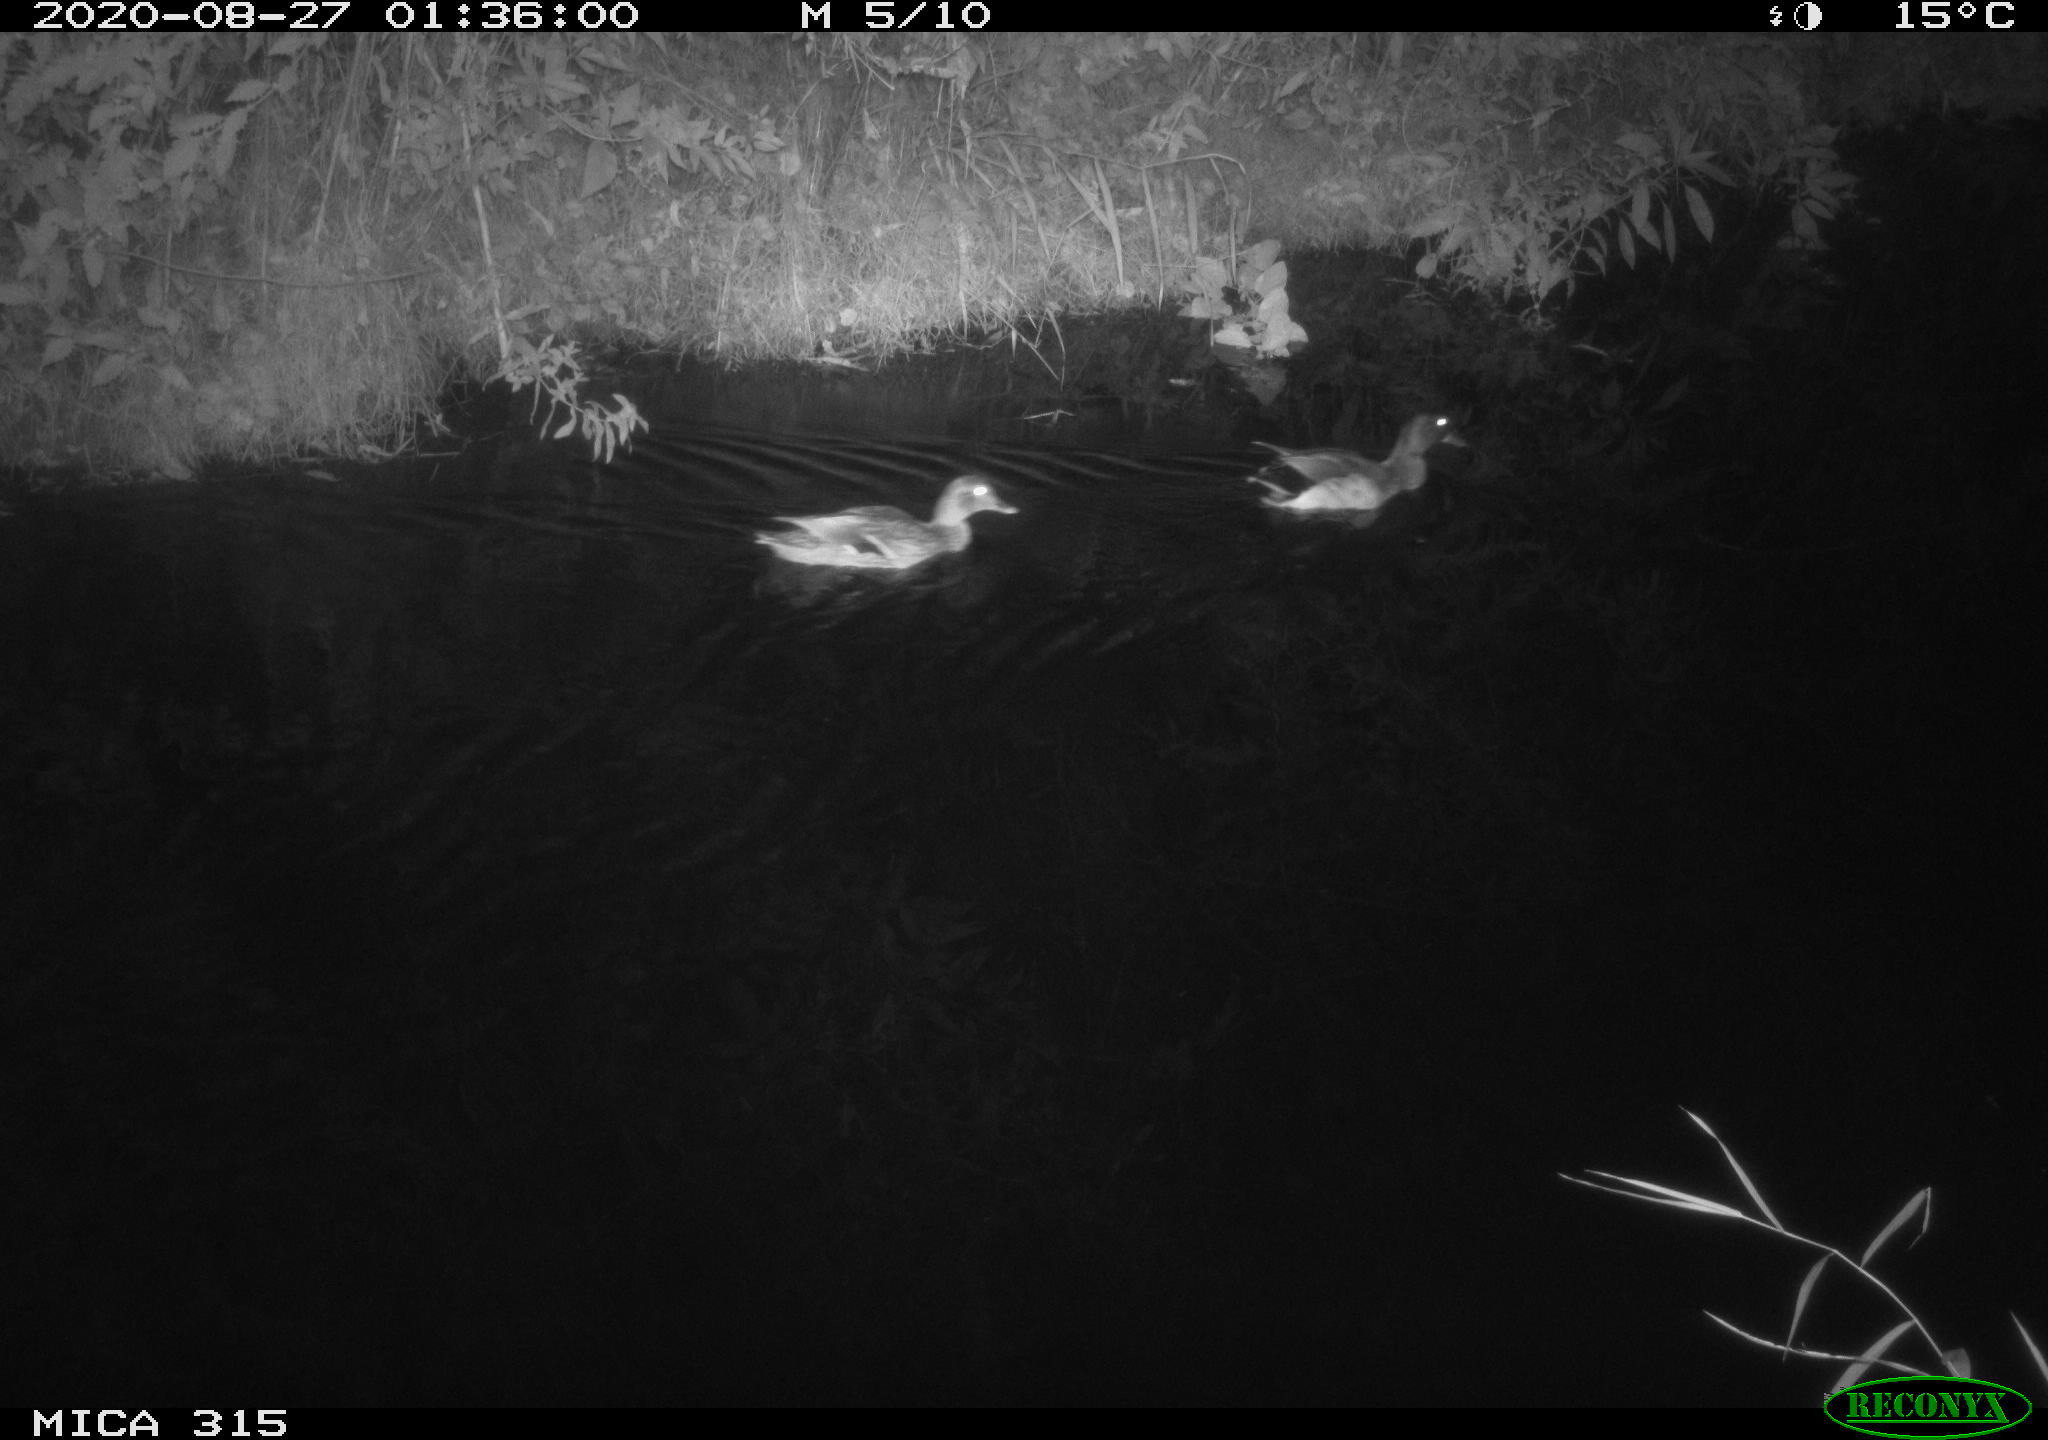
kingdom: Animalia
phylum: Chordata
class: Aves
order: Anseriformes
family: Anatidae
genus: Anas
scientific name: Anas platyrhynchos
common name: Mallard
